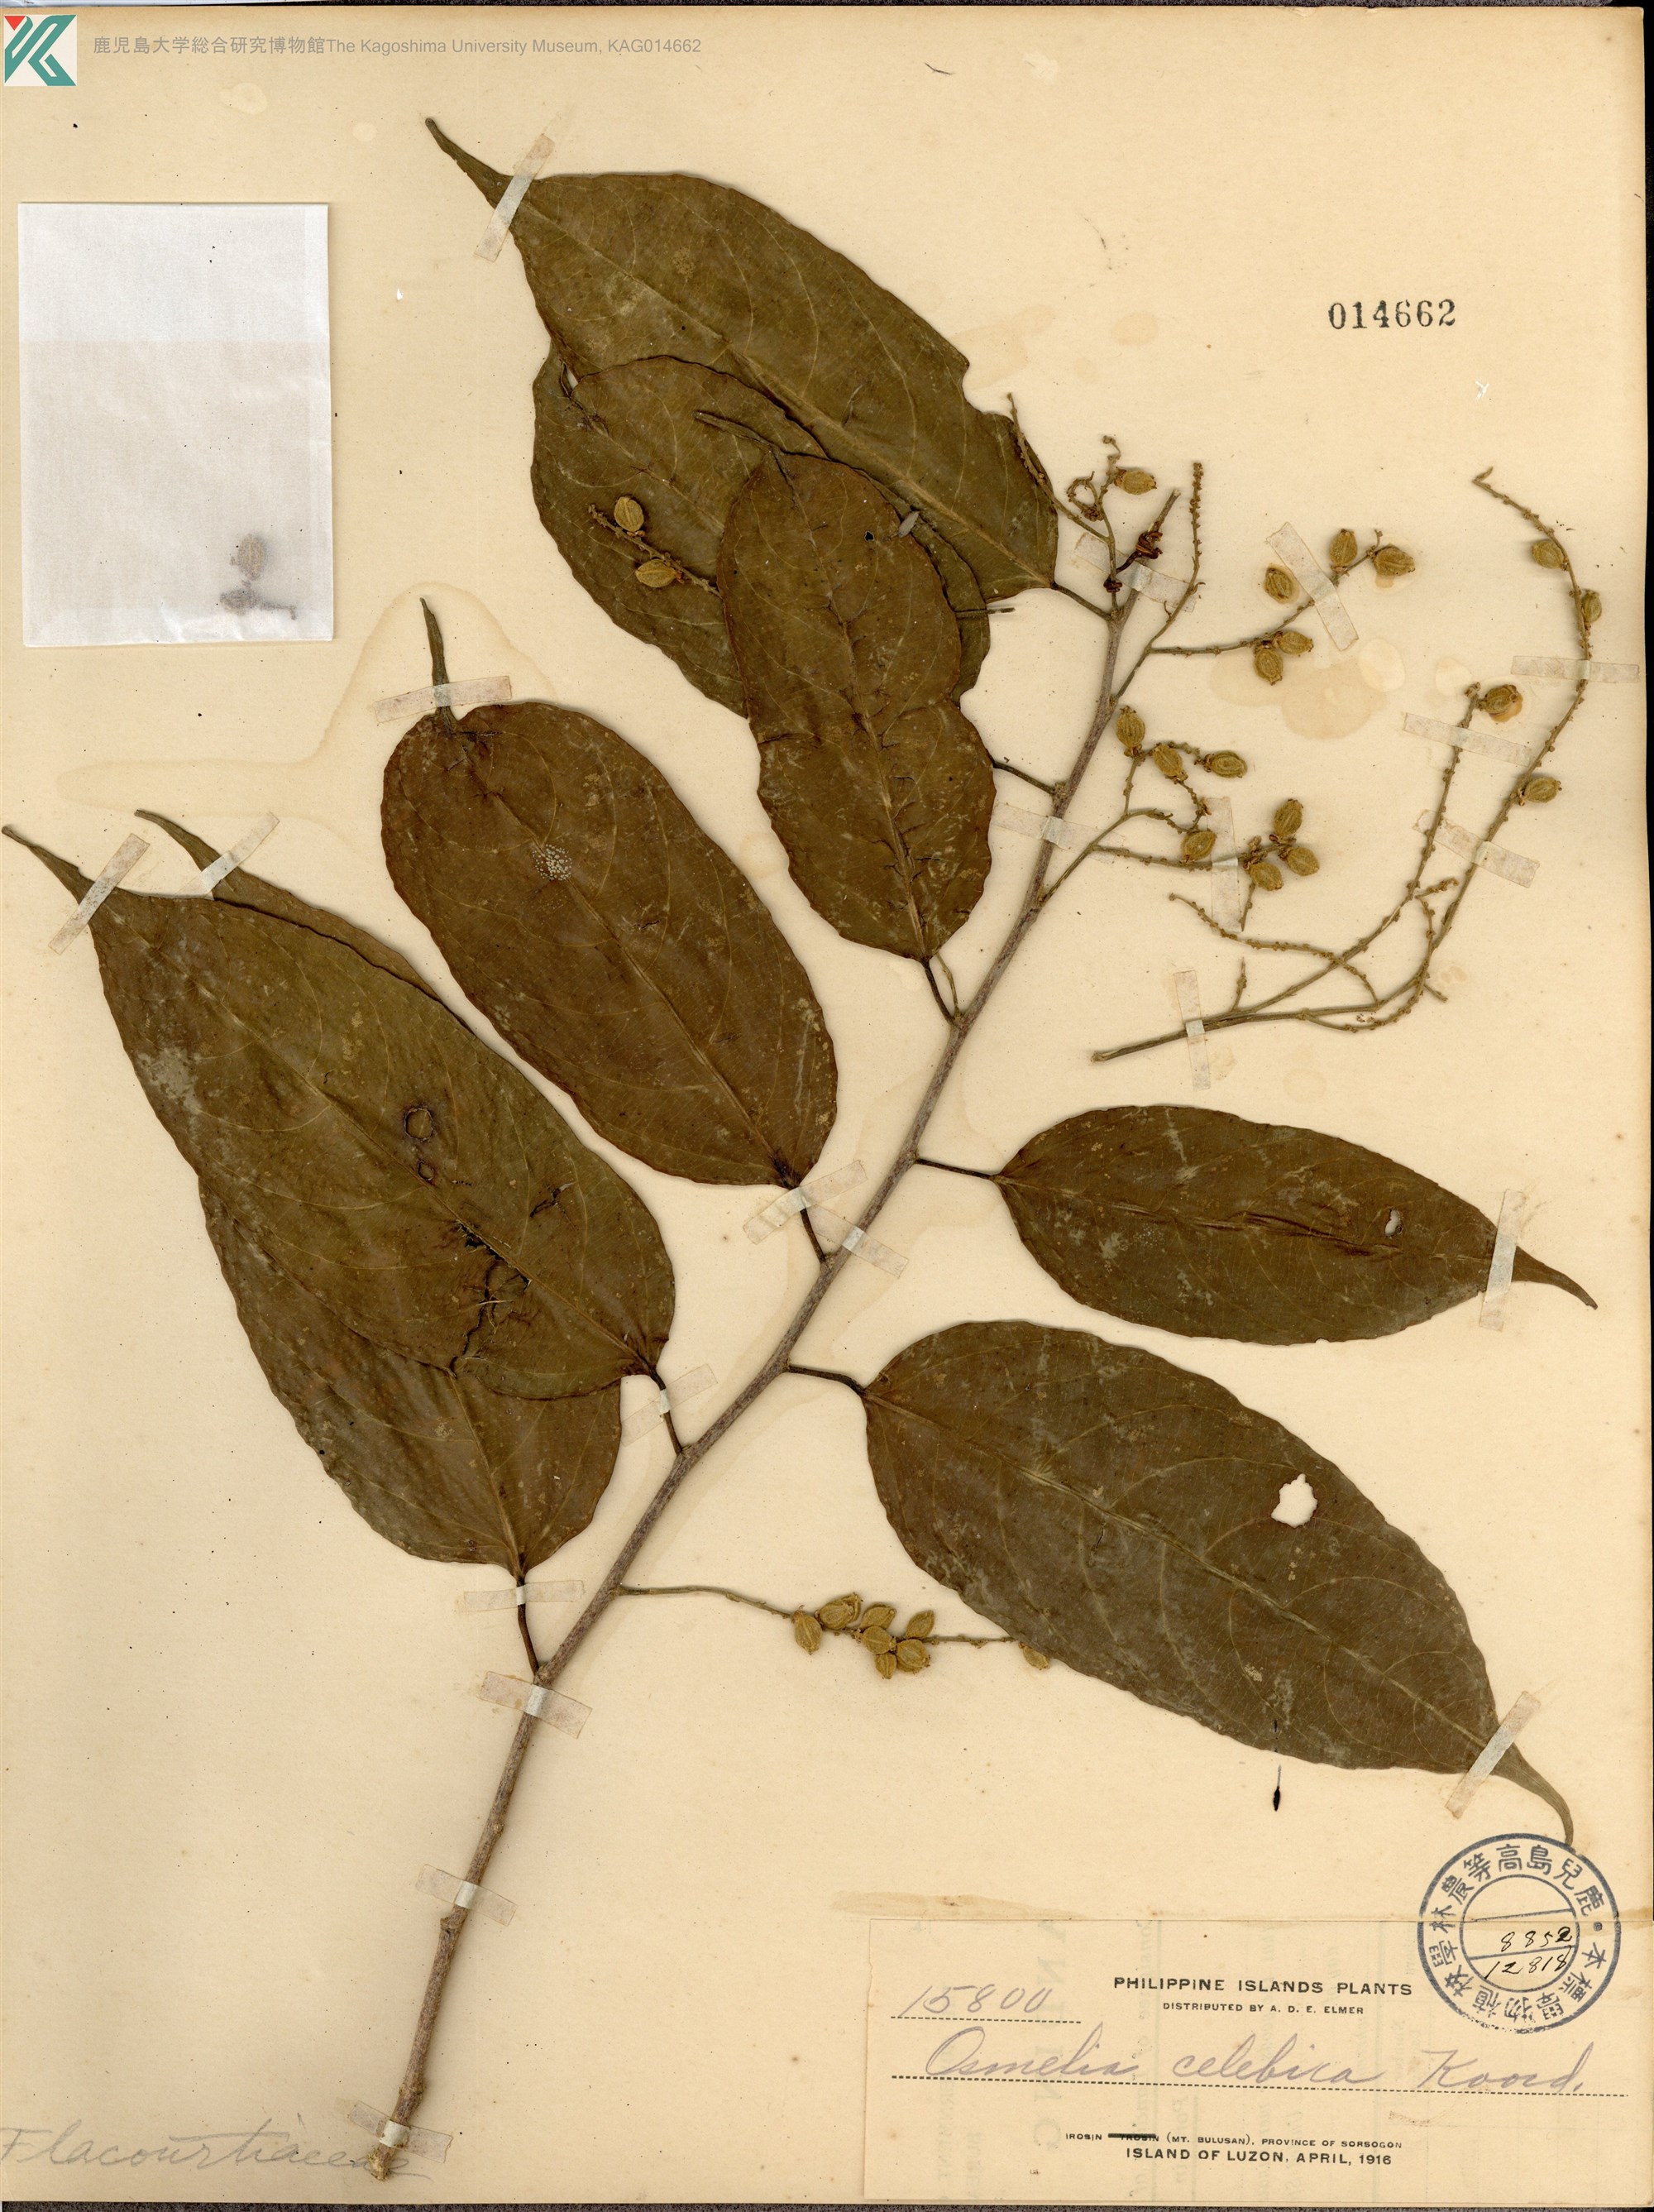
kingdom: Plantae
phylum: Tracheophyta
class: Magnoliopsida
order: Malpighiales
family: Salicaceae
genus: Osmelia
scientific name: Osmelia philippina
